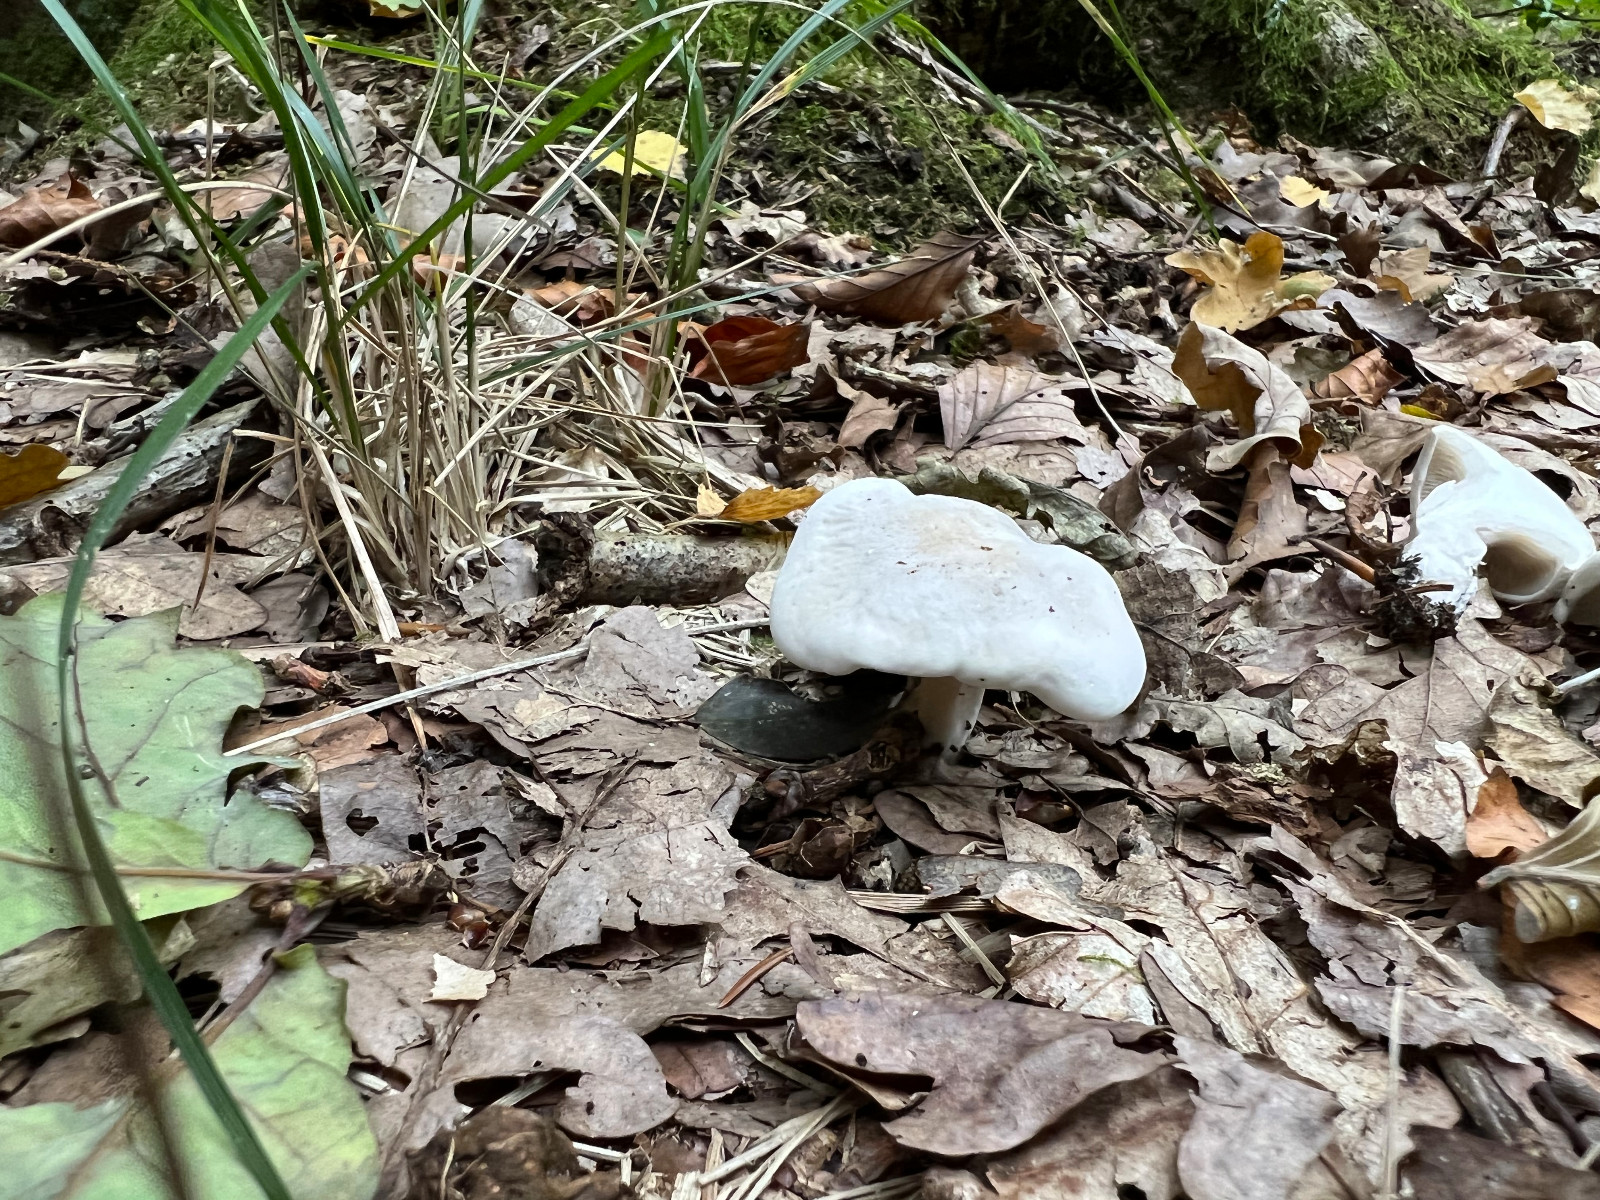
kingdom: Fungi
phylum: Basidiomycota
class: Agaricomycetes
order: Agaricales
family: Entolomataceae
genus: Clitopilus
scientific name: Clitopilus prunulus
